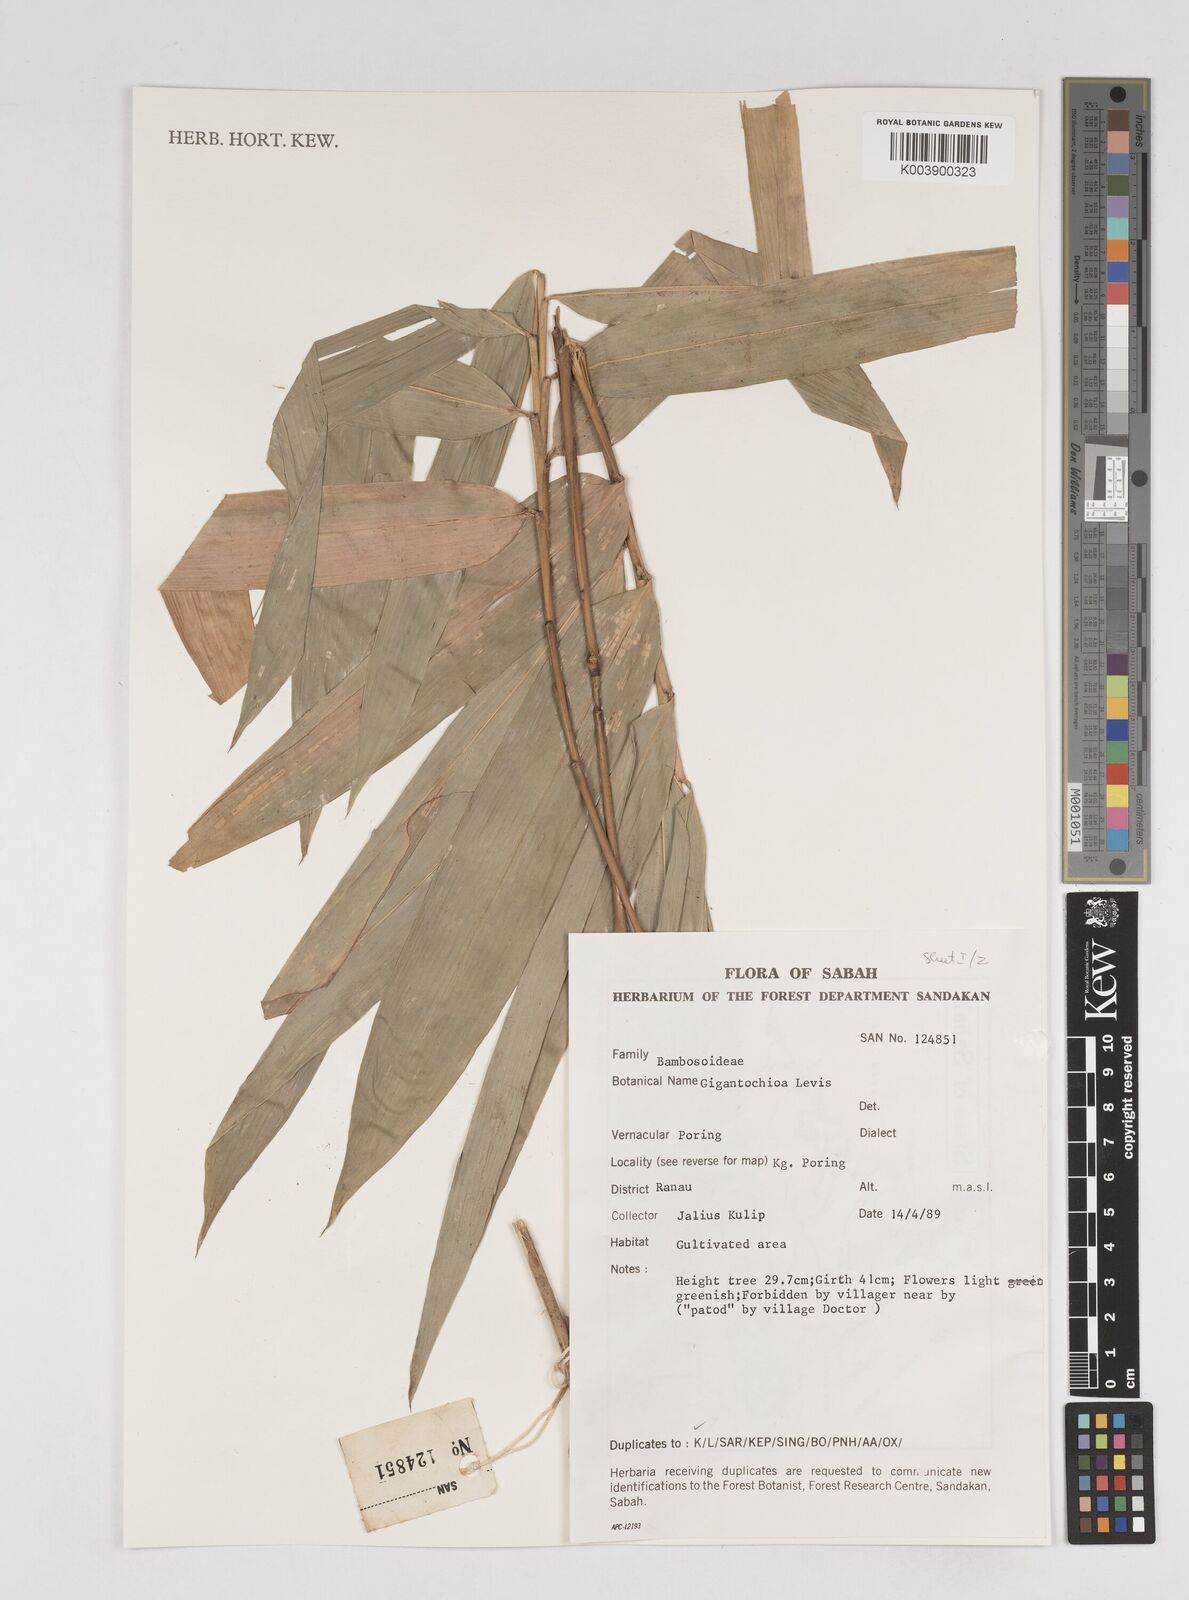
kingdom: Plantae
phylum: Tracheophyta
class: Liliopsida
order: Poales
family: Poaceae
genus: Gigantochloa
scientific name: Gigantochloa levis
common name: Smooth-shoot gigantochloa
